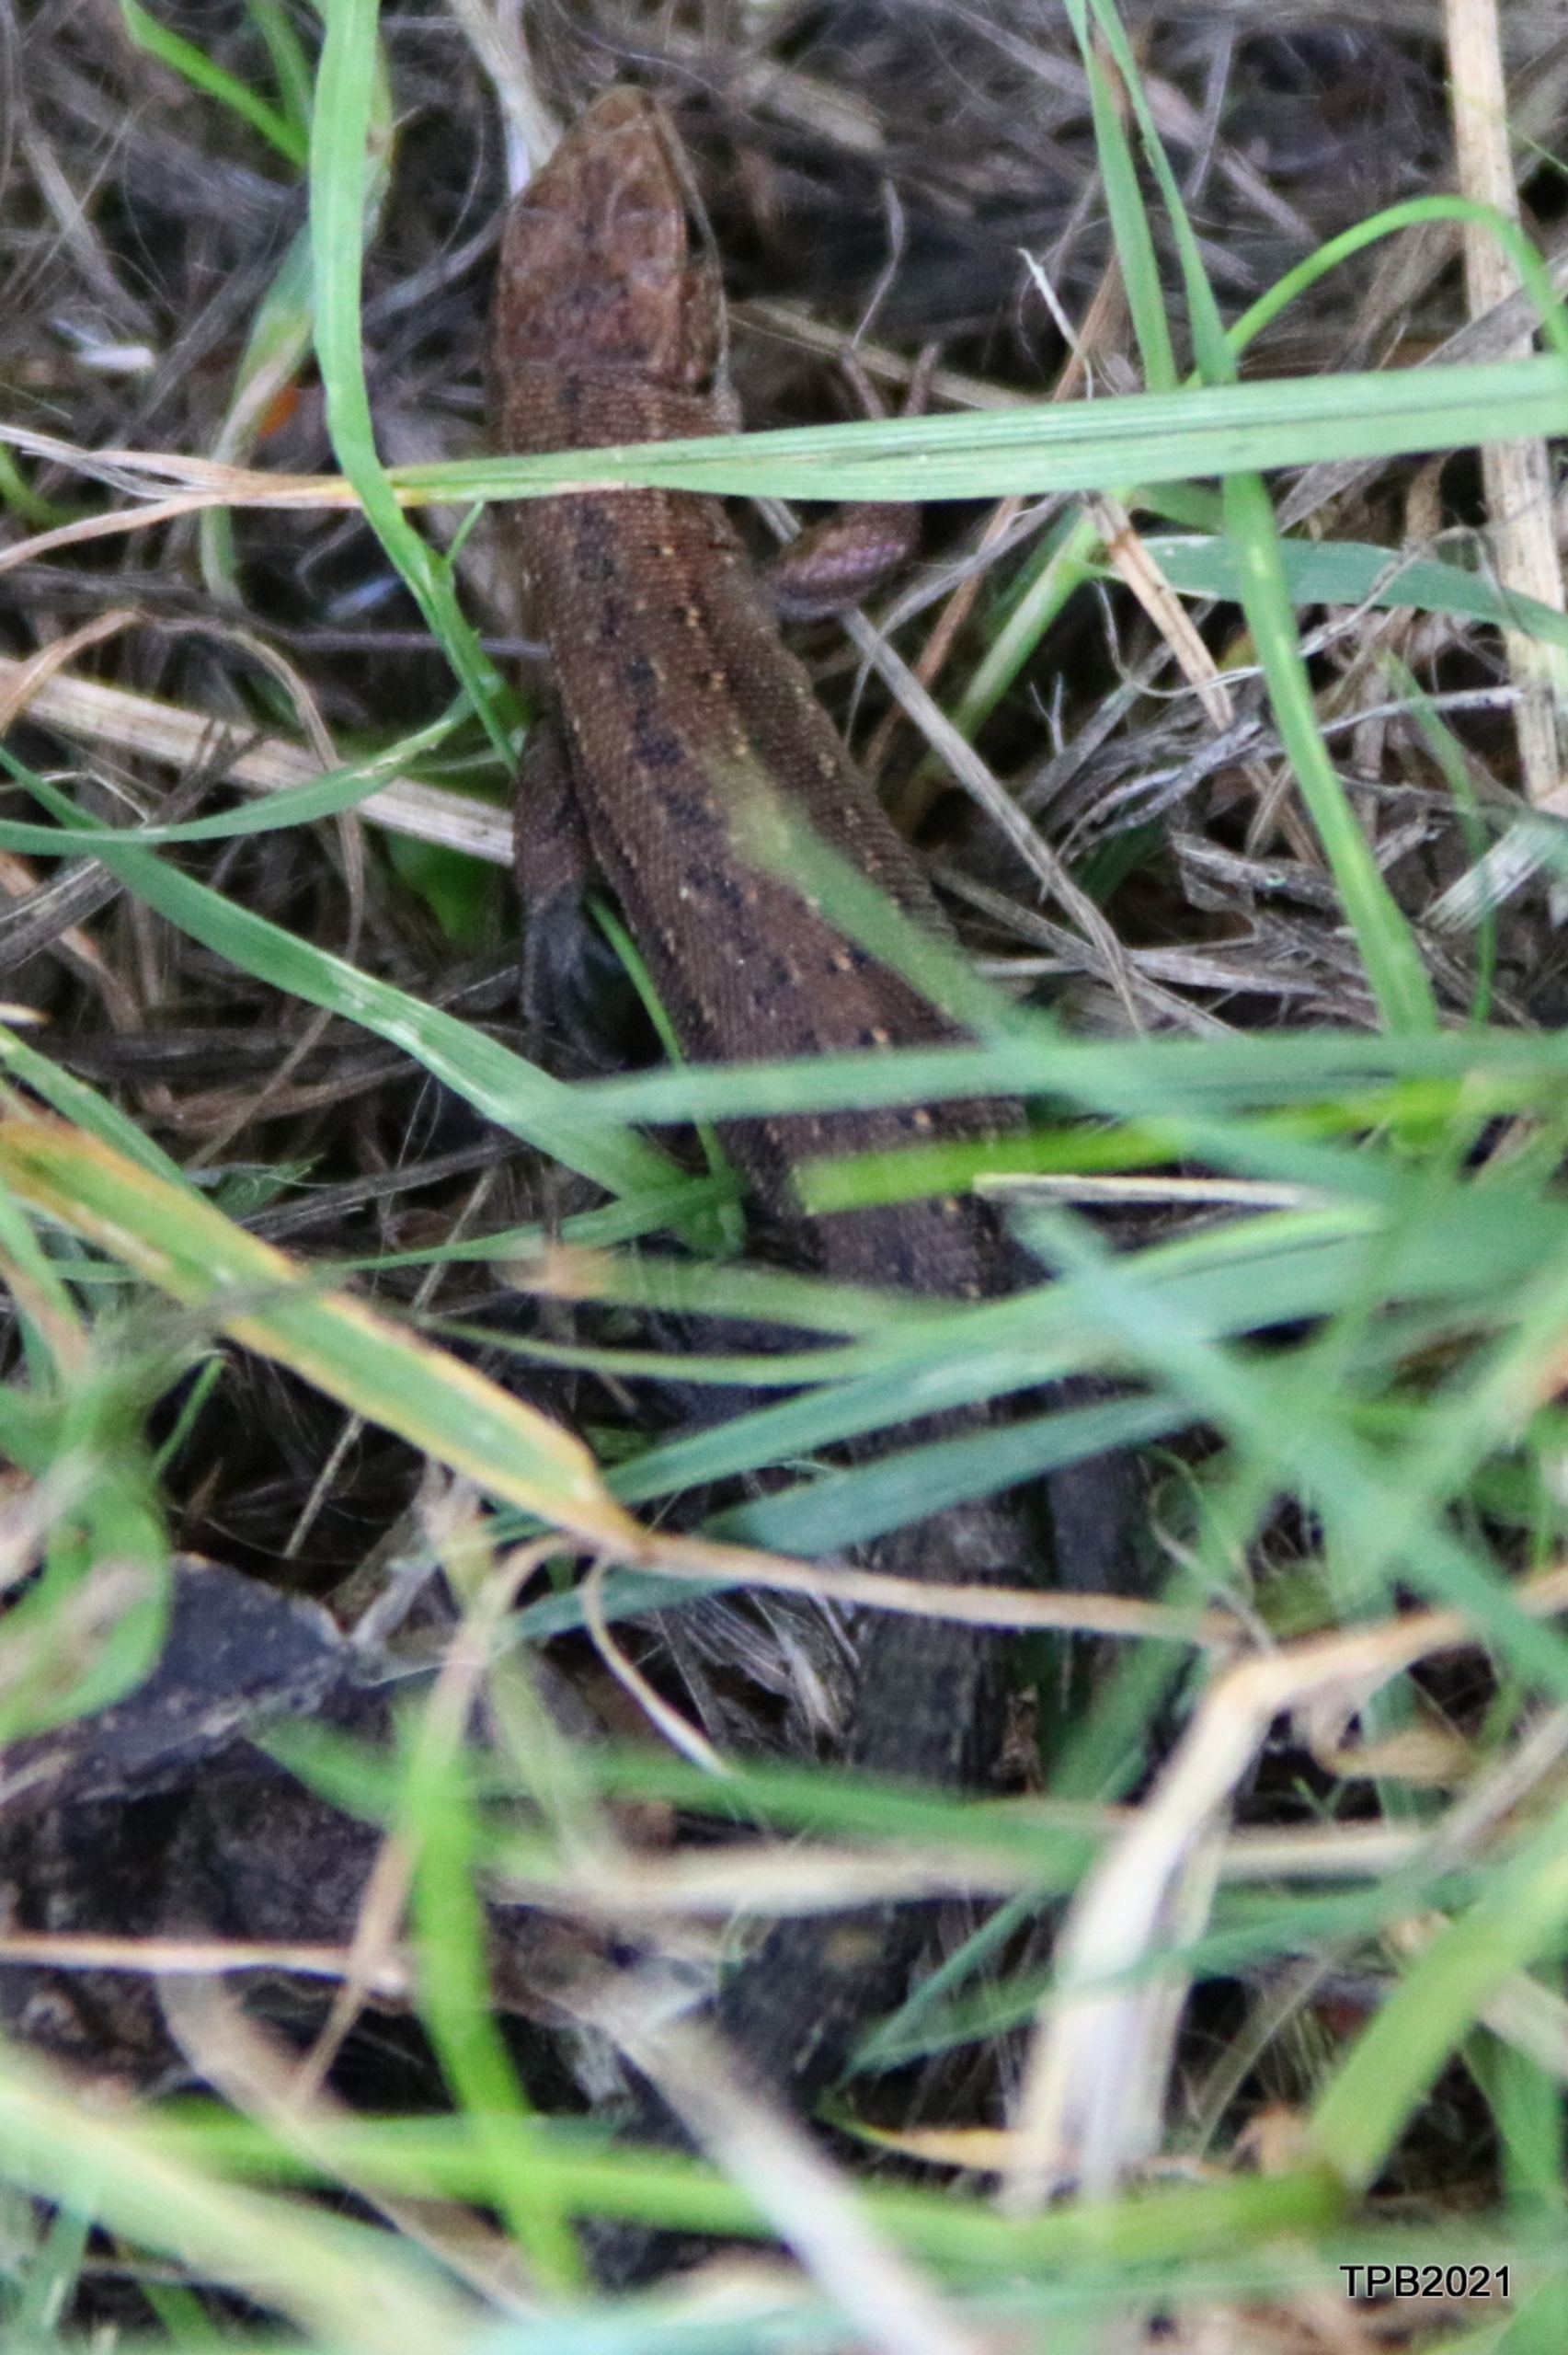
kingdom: Animalia
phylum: Chordata
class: Squamata
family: Lacertidae
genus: Zootoca
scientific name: Zootoca vivipara
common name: Skovfirben
